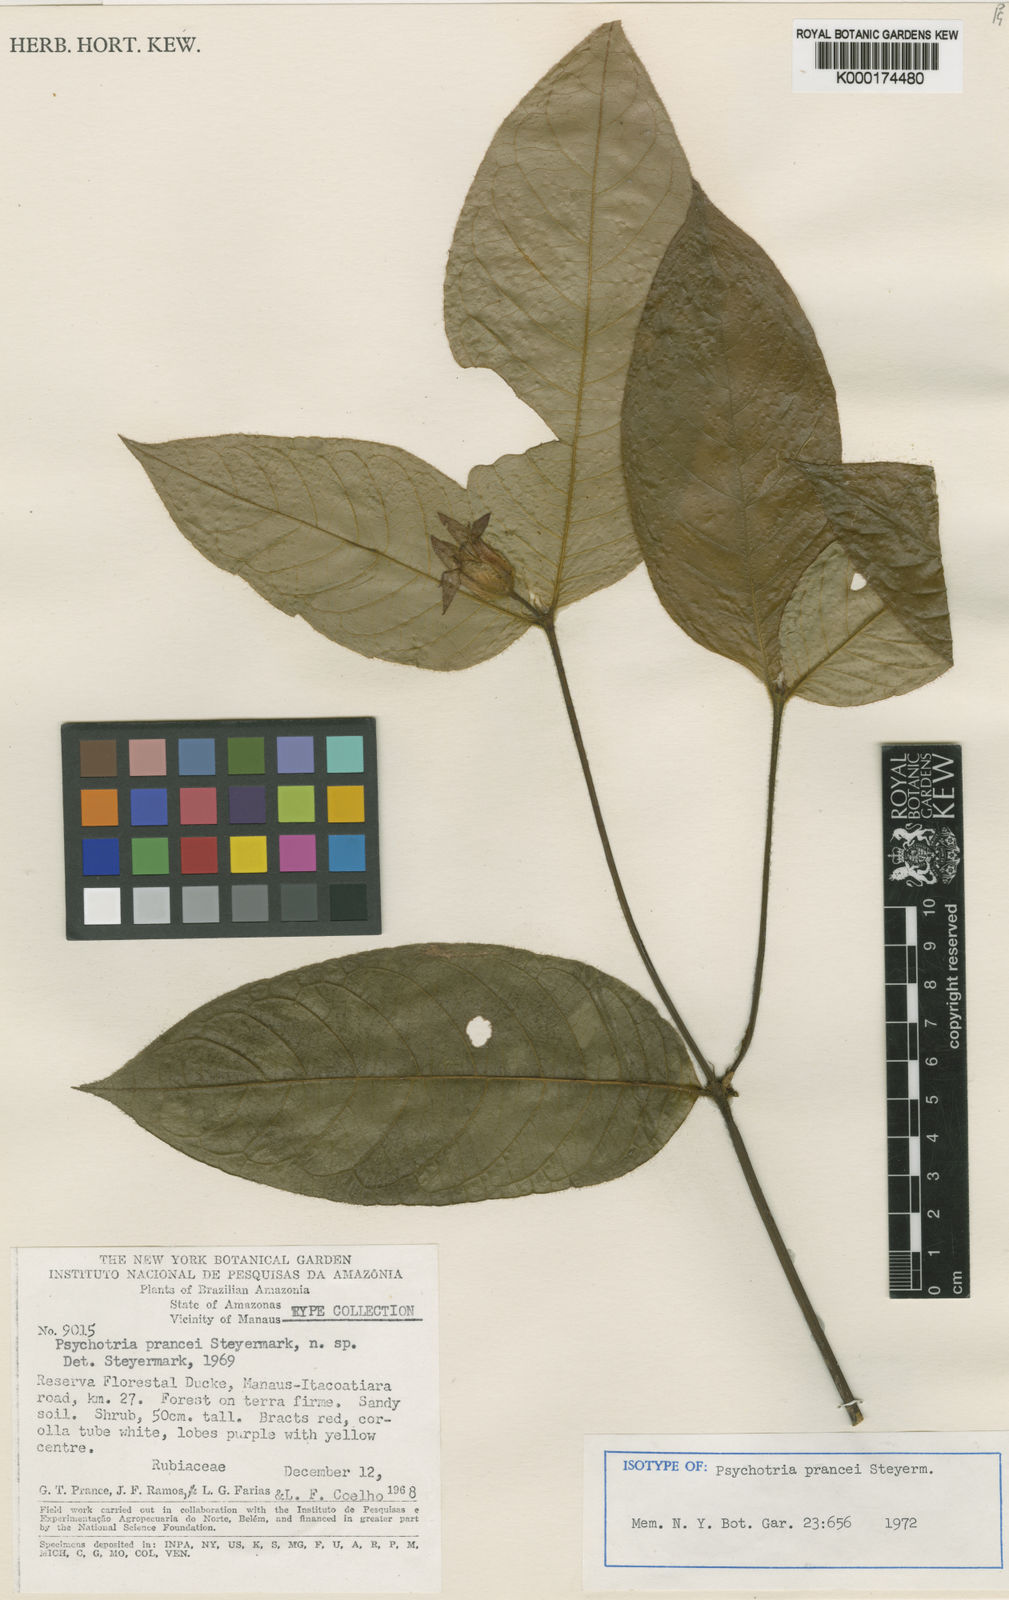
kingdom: Plantae
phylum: Tracheophyta
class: Magnoliopsida
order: Gentianales
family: Rubiaceae
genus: Palicourea
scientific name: Palicourea prancei
